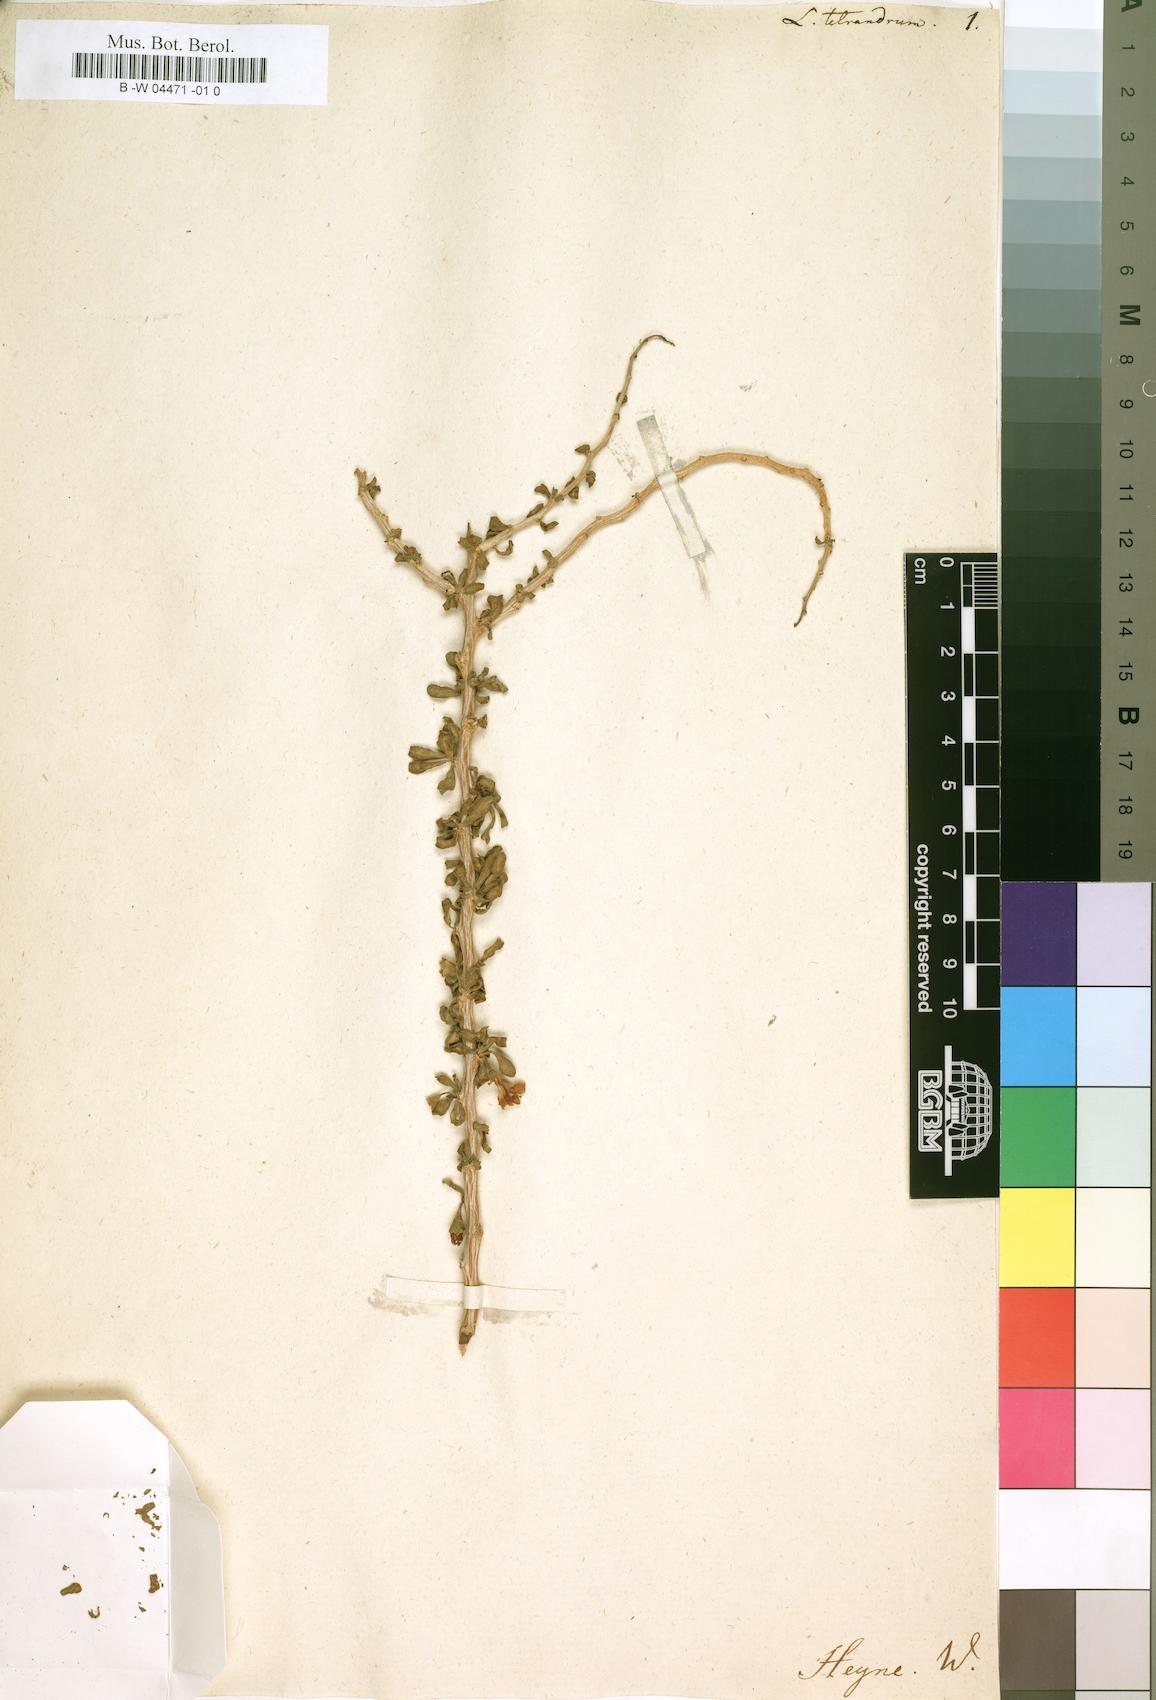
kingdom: Plantae
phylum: Tracheophyta
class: Magnoliopsida
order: Solanales
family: Solanaceae
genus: Lycium
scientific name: Lycium tetrandrum
